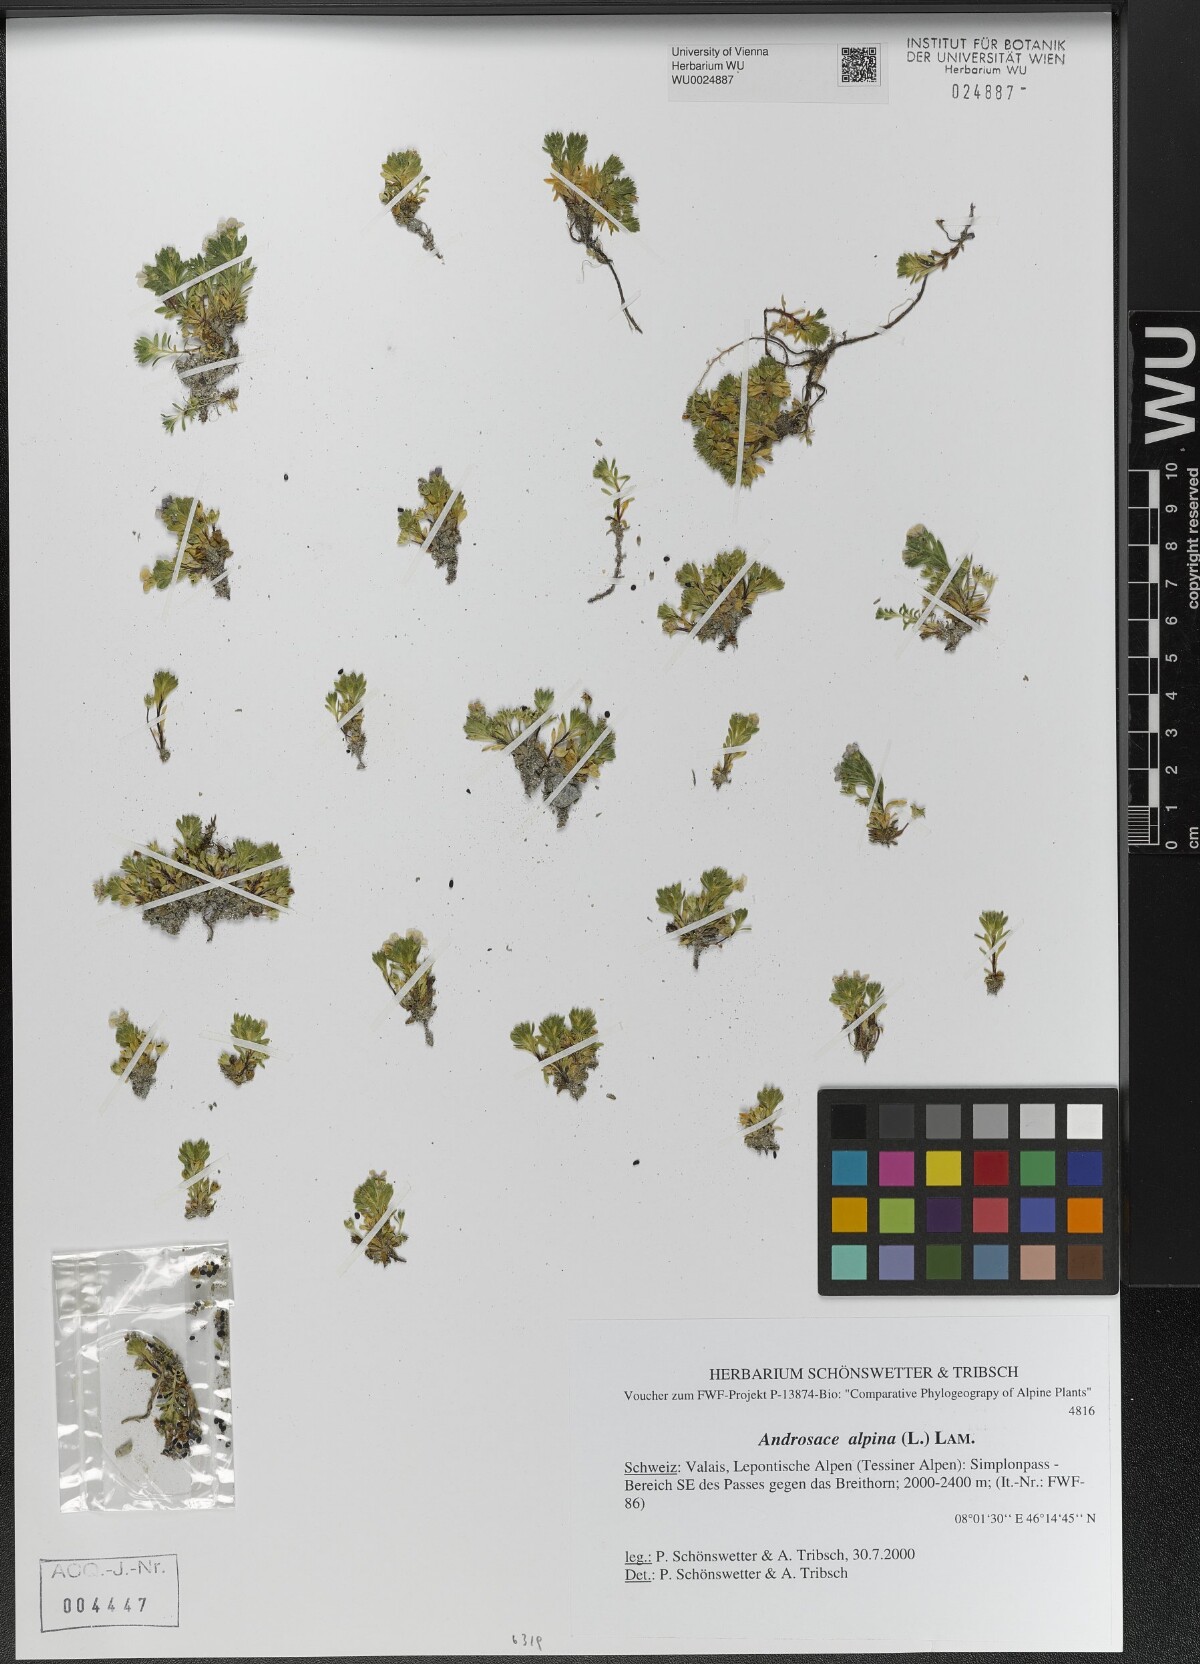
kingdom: Plantae
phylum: Tracheophyta
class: Magnoliopsida
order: Ericales
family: Primulaceae
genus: Androsace
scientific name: Androsace alpina
